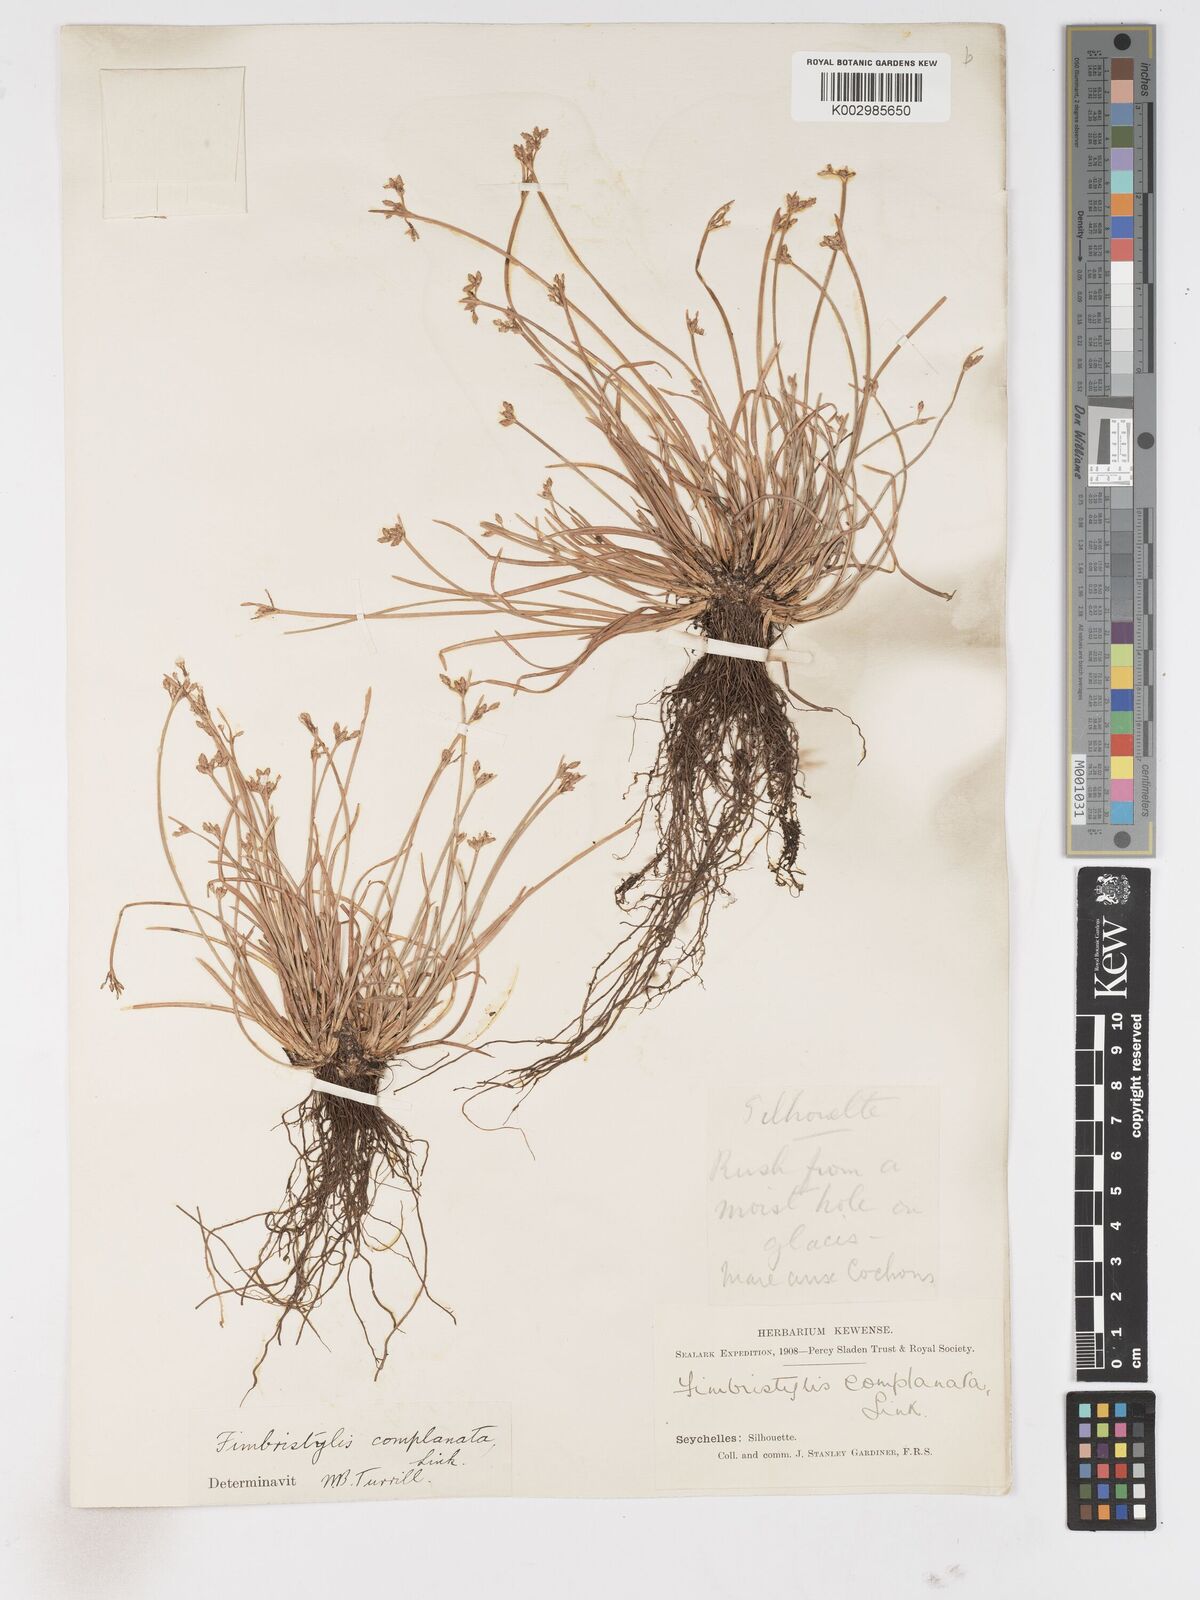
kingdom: Plantae
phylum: Tracheophyta
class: Liliopsida
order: Poales
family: Cyperaceae
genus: Fimbristylis
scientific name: Fimbristylis complanata
